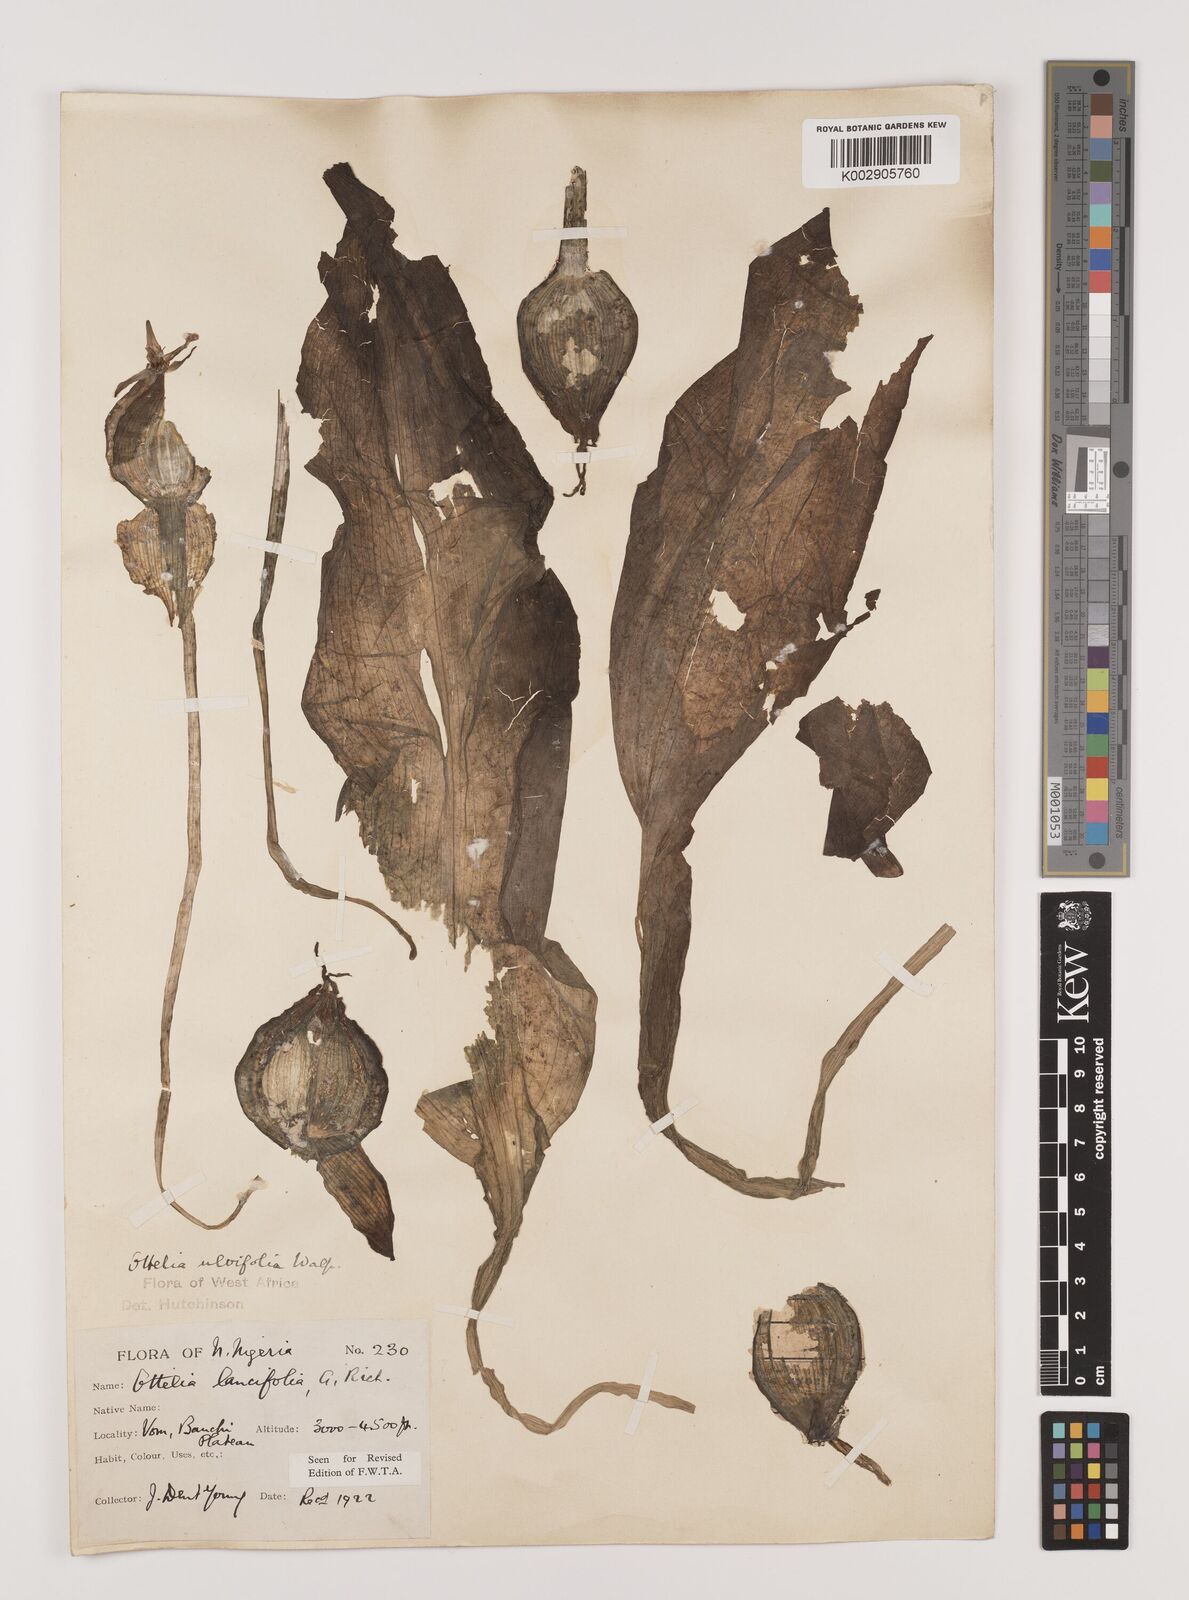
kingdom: Plantae
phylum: Tracheophyta
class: Liliopsida
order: Alismatales
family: Hydrocharitaceae
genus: Ottelia
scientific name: Ottelia ulvifolia
